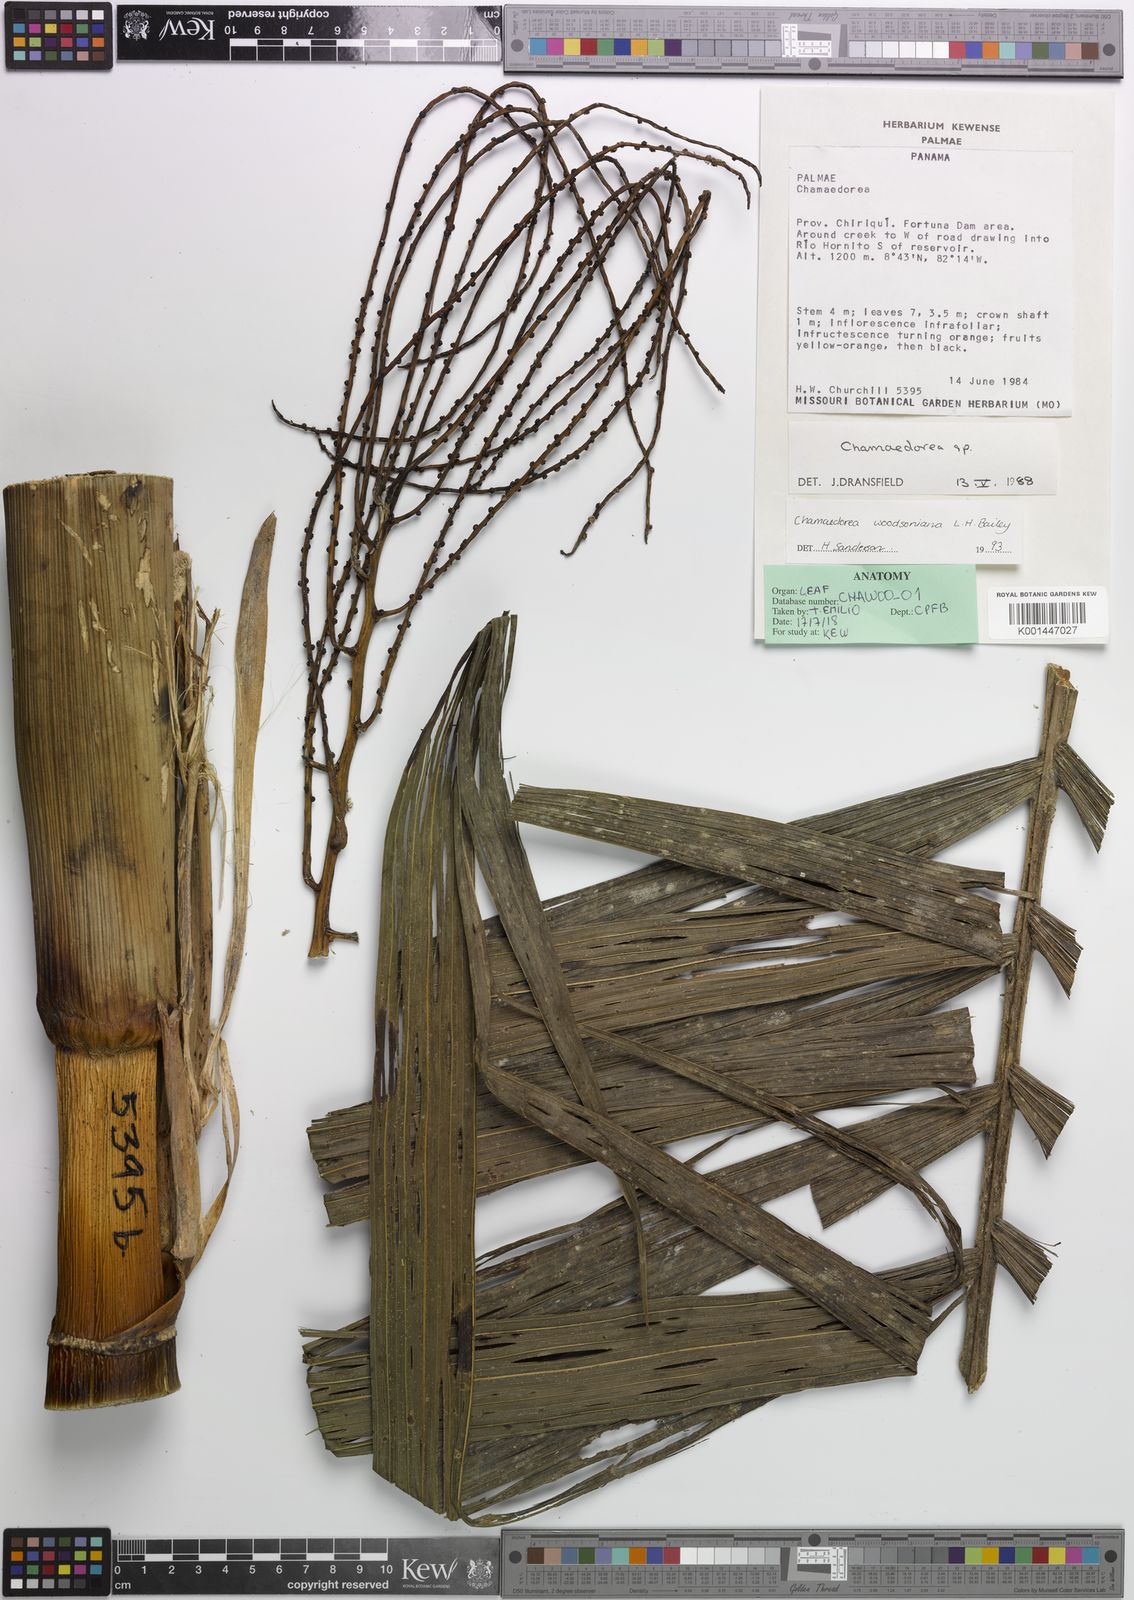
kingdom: Plantae
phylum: Tracheophyta
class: Liliopsida
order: Arecales
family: Arecaceae
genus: Chamaedorea
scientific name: Chamaedorea woodsoniana
